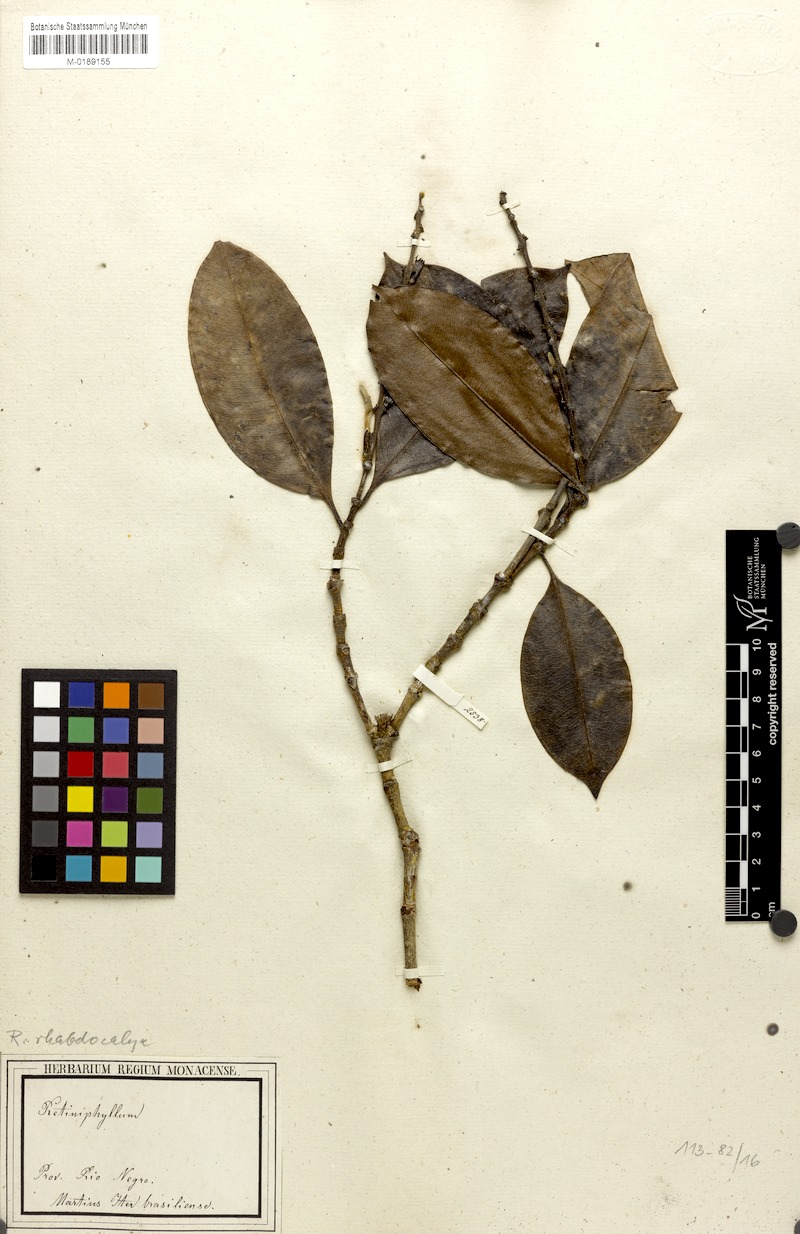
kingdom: Plantae
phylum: Tracheophyta
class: Magnoliopsida
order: Gentianales
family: Rubiaceae
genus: Retiniphyllum
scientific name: Retiniphyllum speciosum
